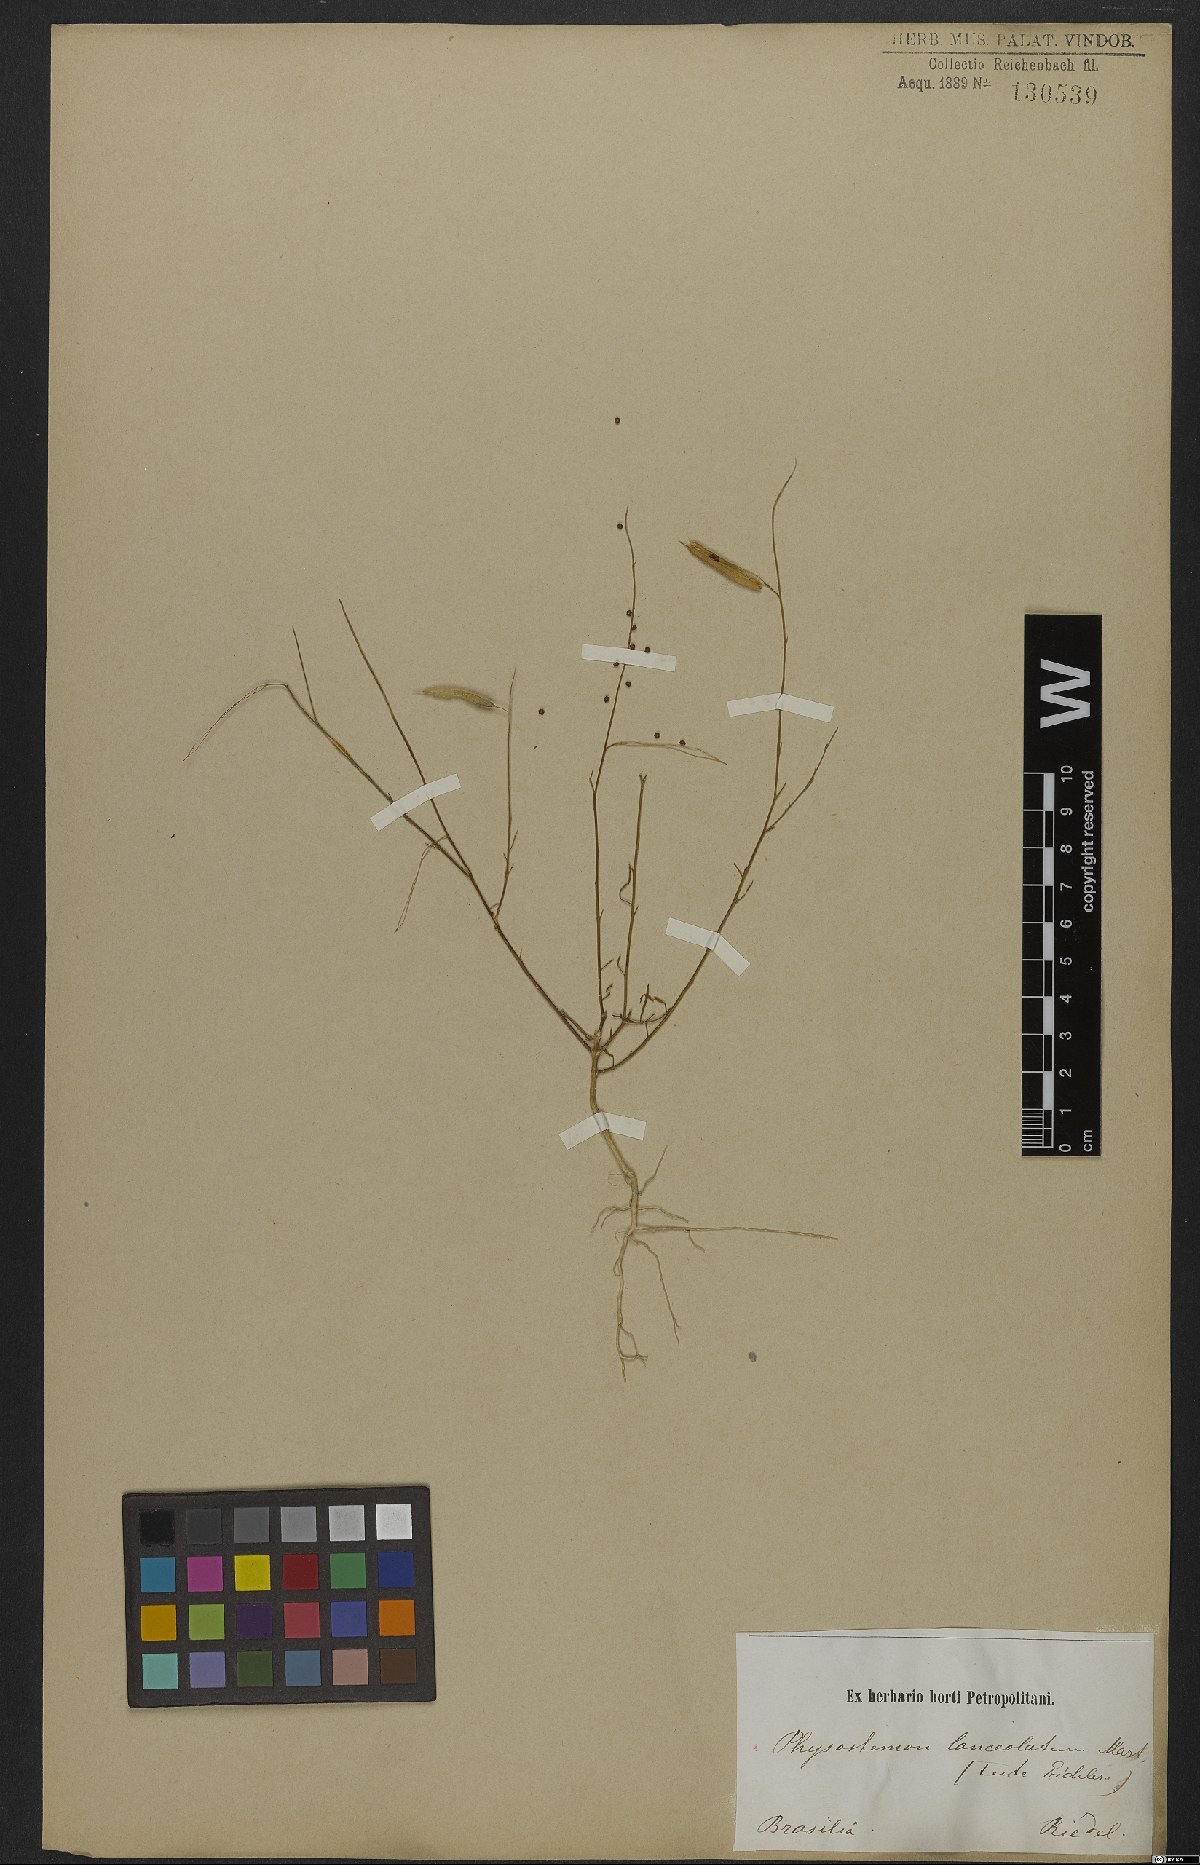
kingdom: Plantae
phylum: Tracheophyta
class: Magnoliopsida
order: Brassicales
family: Cleomaceae
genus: Physostemon
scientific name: Physostemon lanceolatus
